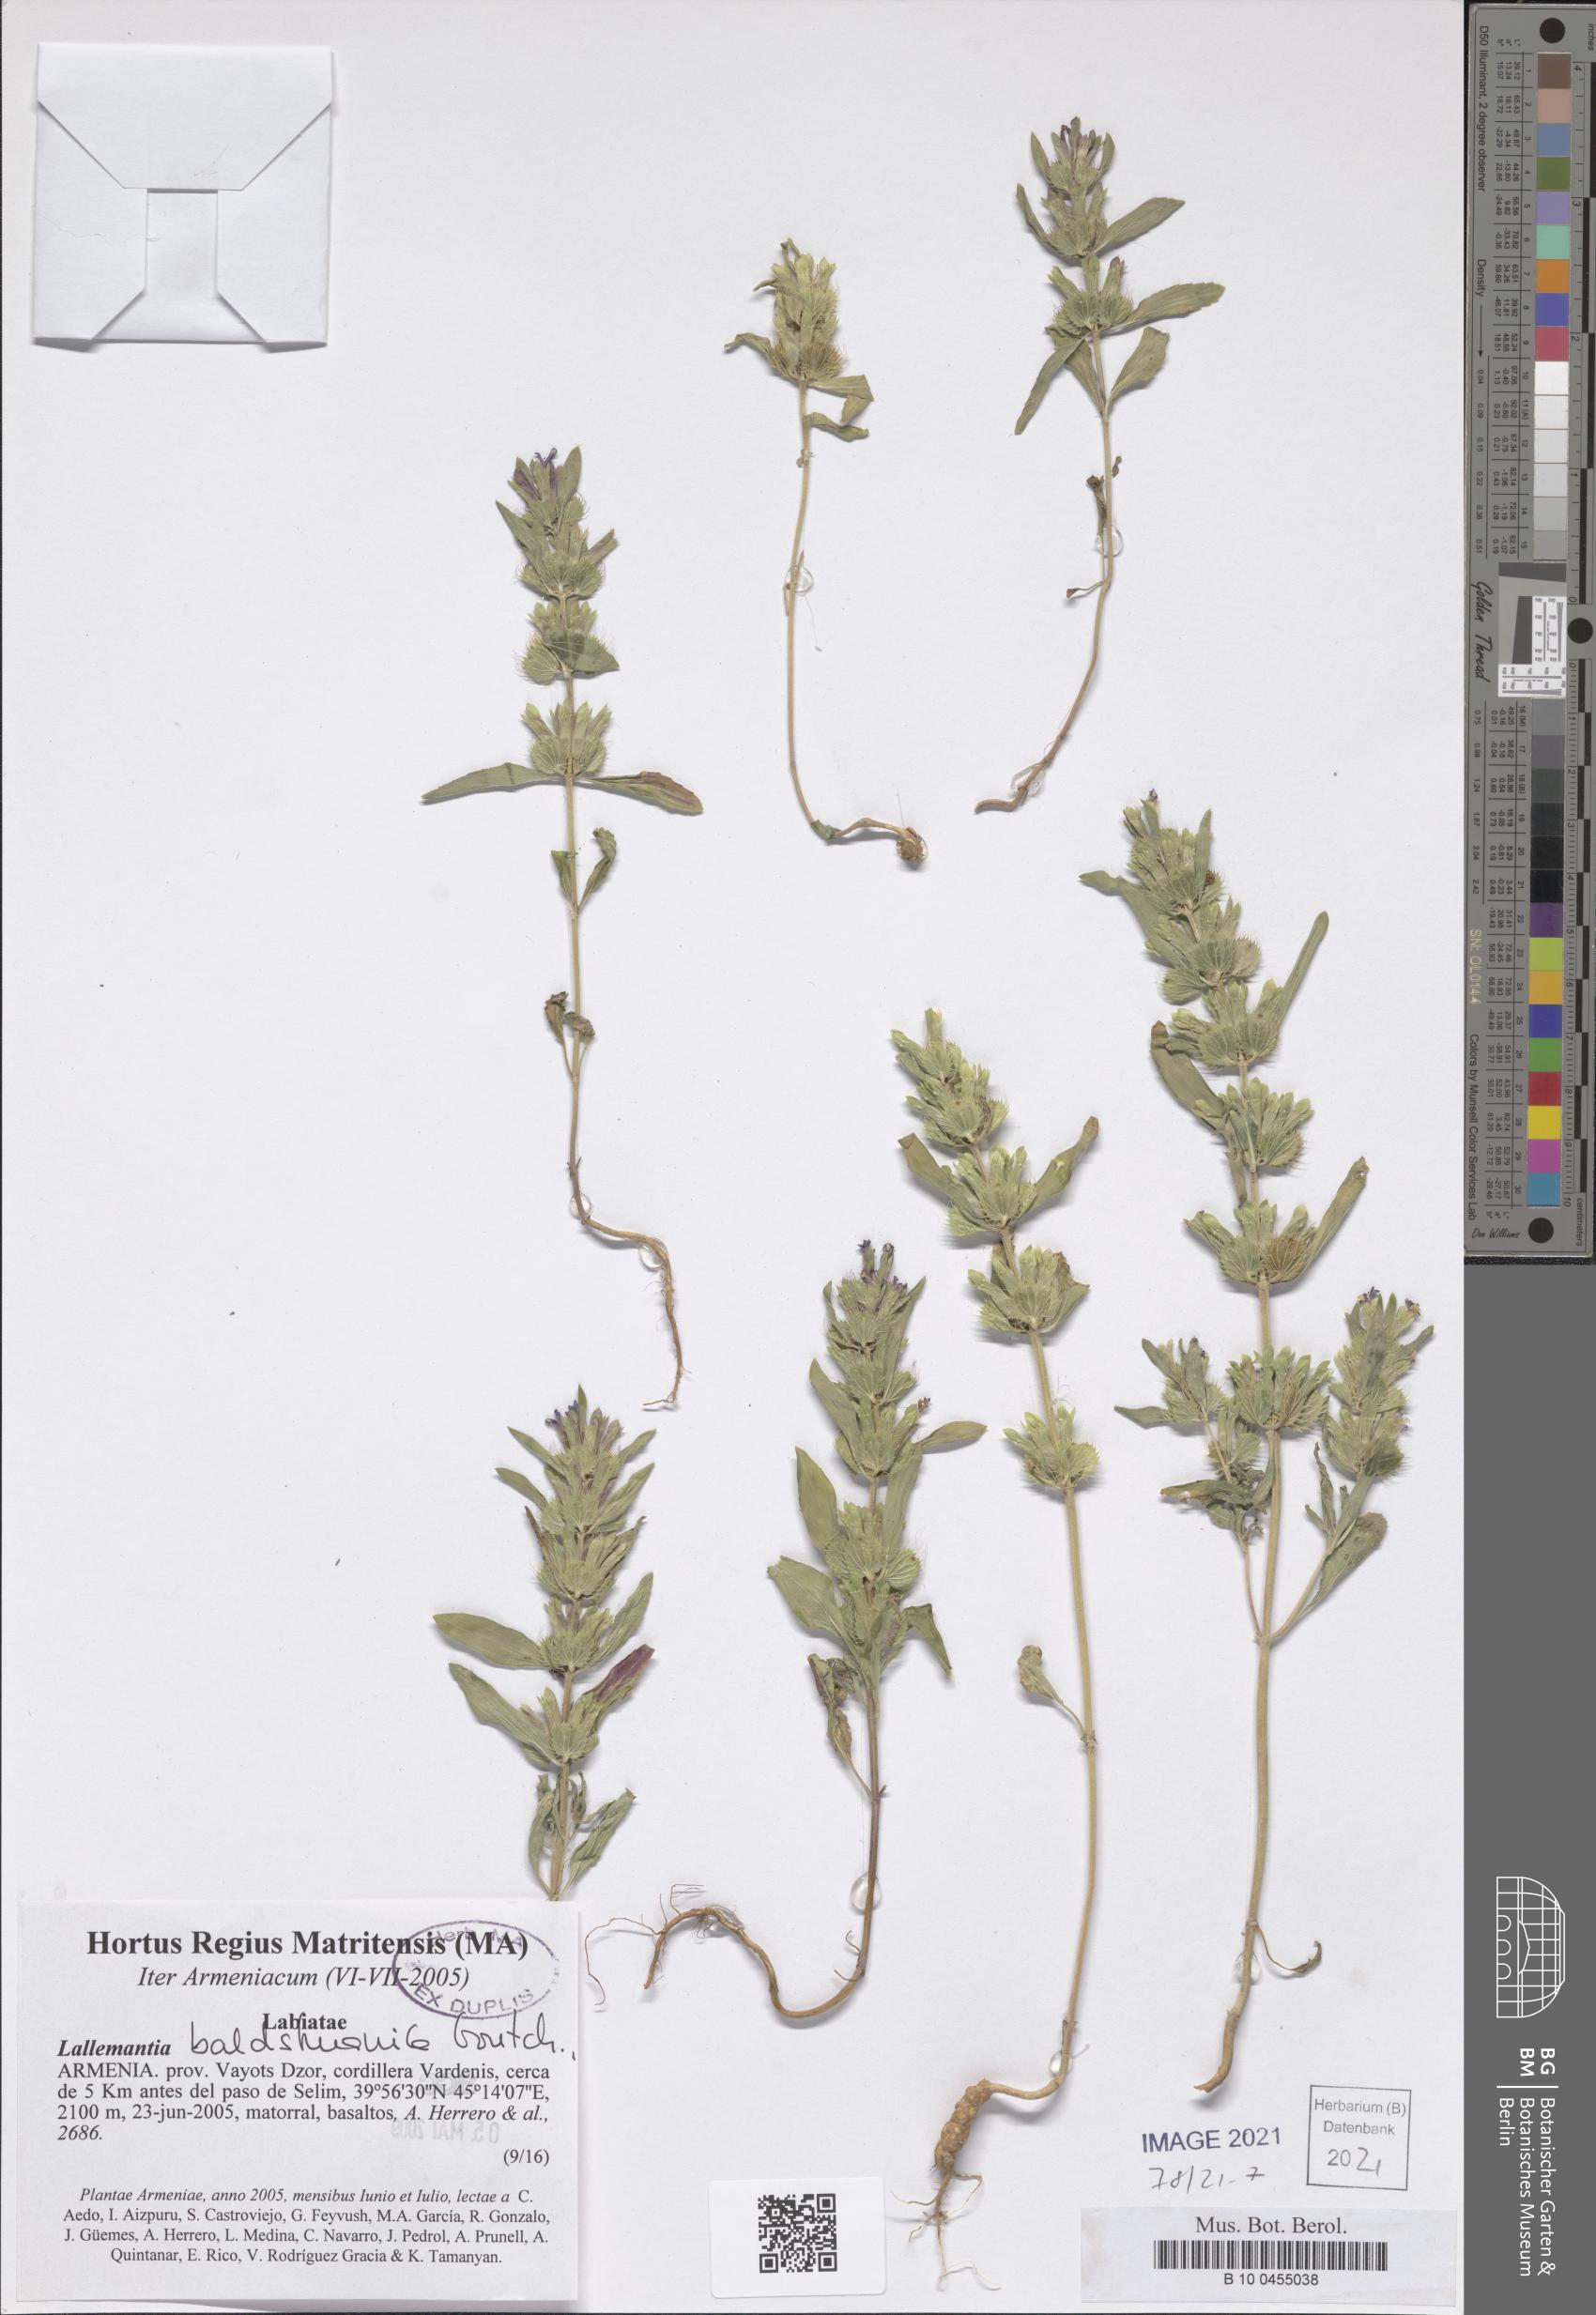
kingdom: Plantae
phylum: Tracheophyta
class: Magnoliopsida
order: Lamiales
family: Lamiaceae
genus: Lallemantia
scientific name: Lallemantia baldshuanica
